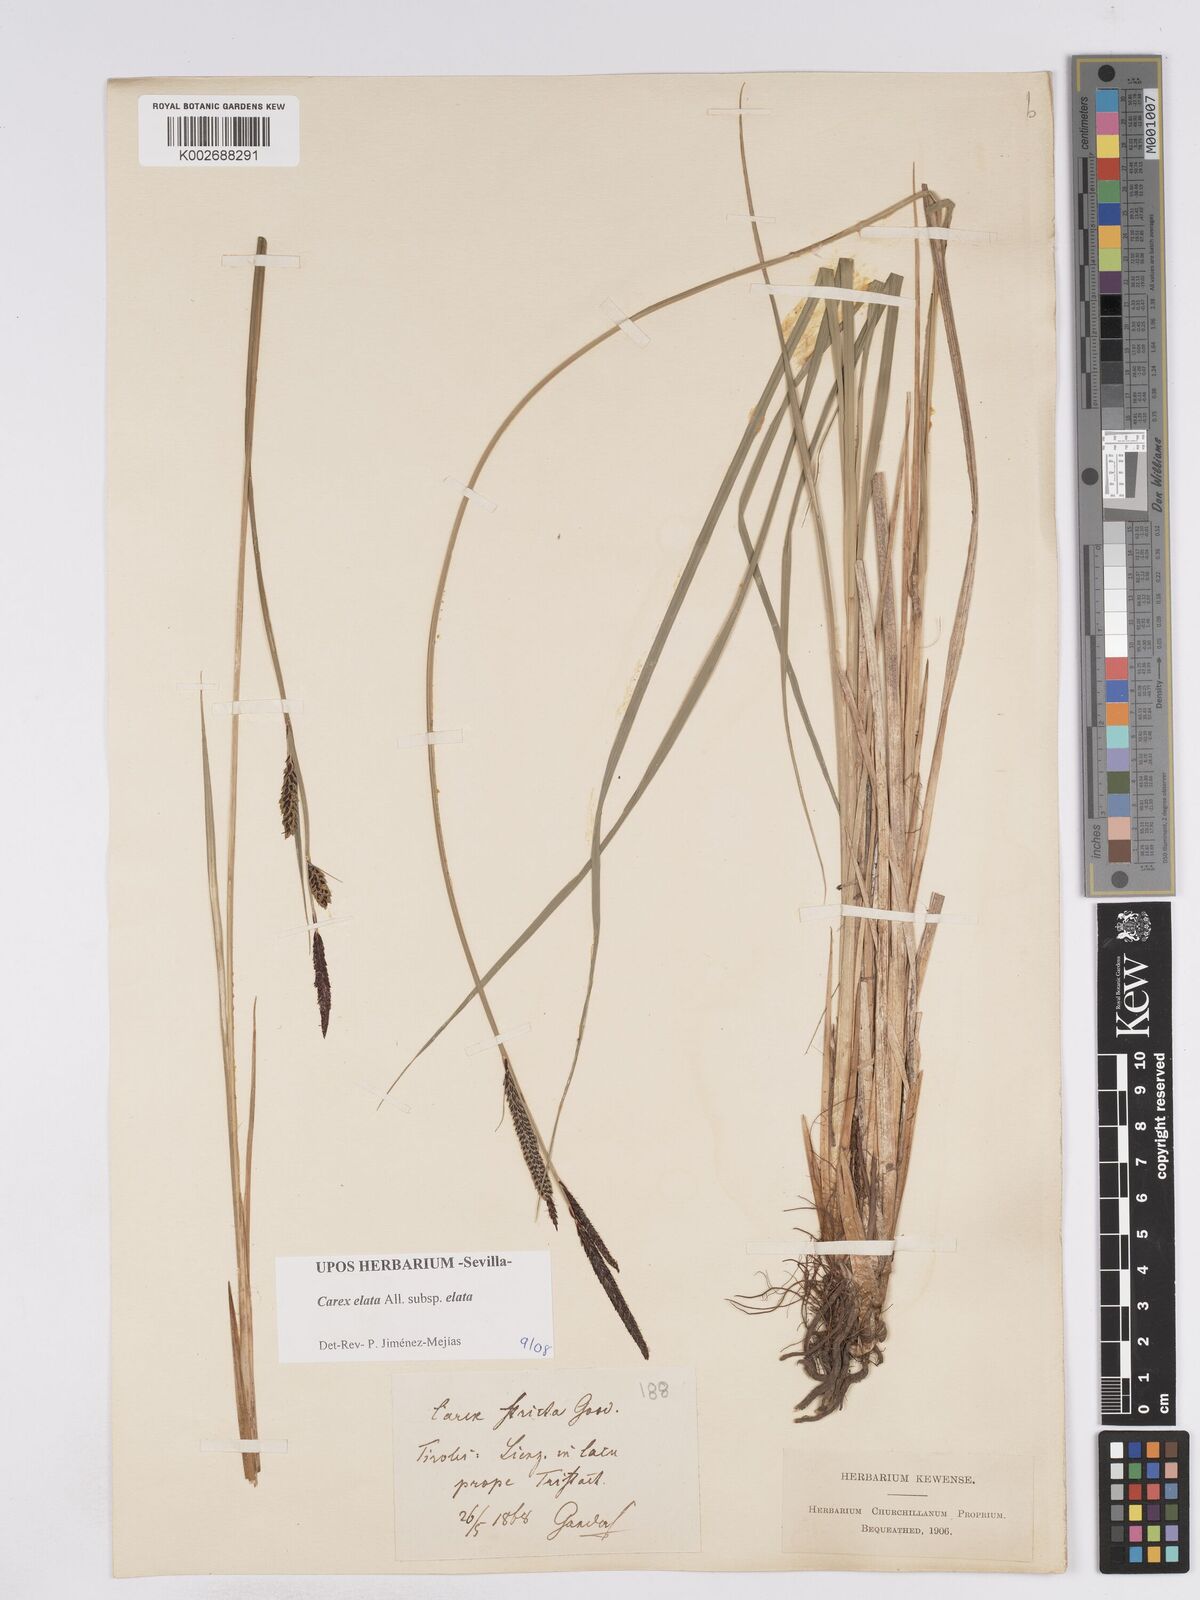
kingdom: Plantae
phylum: Tracheophyta
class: Liliopsida
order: Poales
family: Cyperaceae
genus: Carex
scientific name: Carex elata
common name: Tufted sedge
